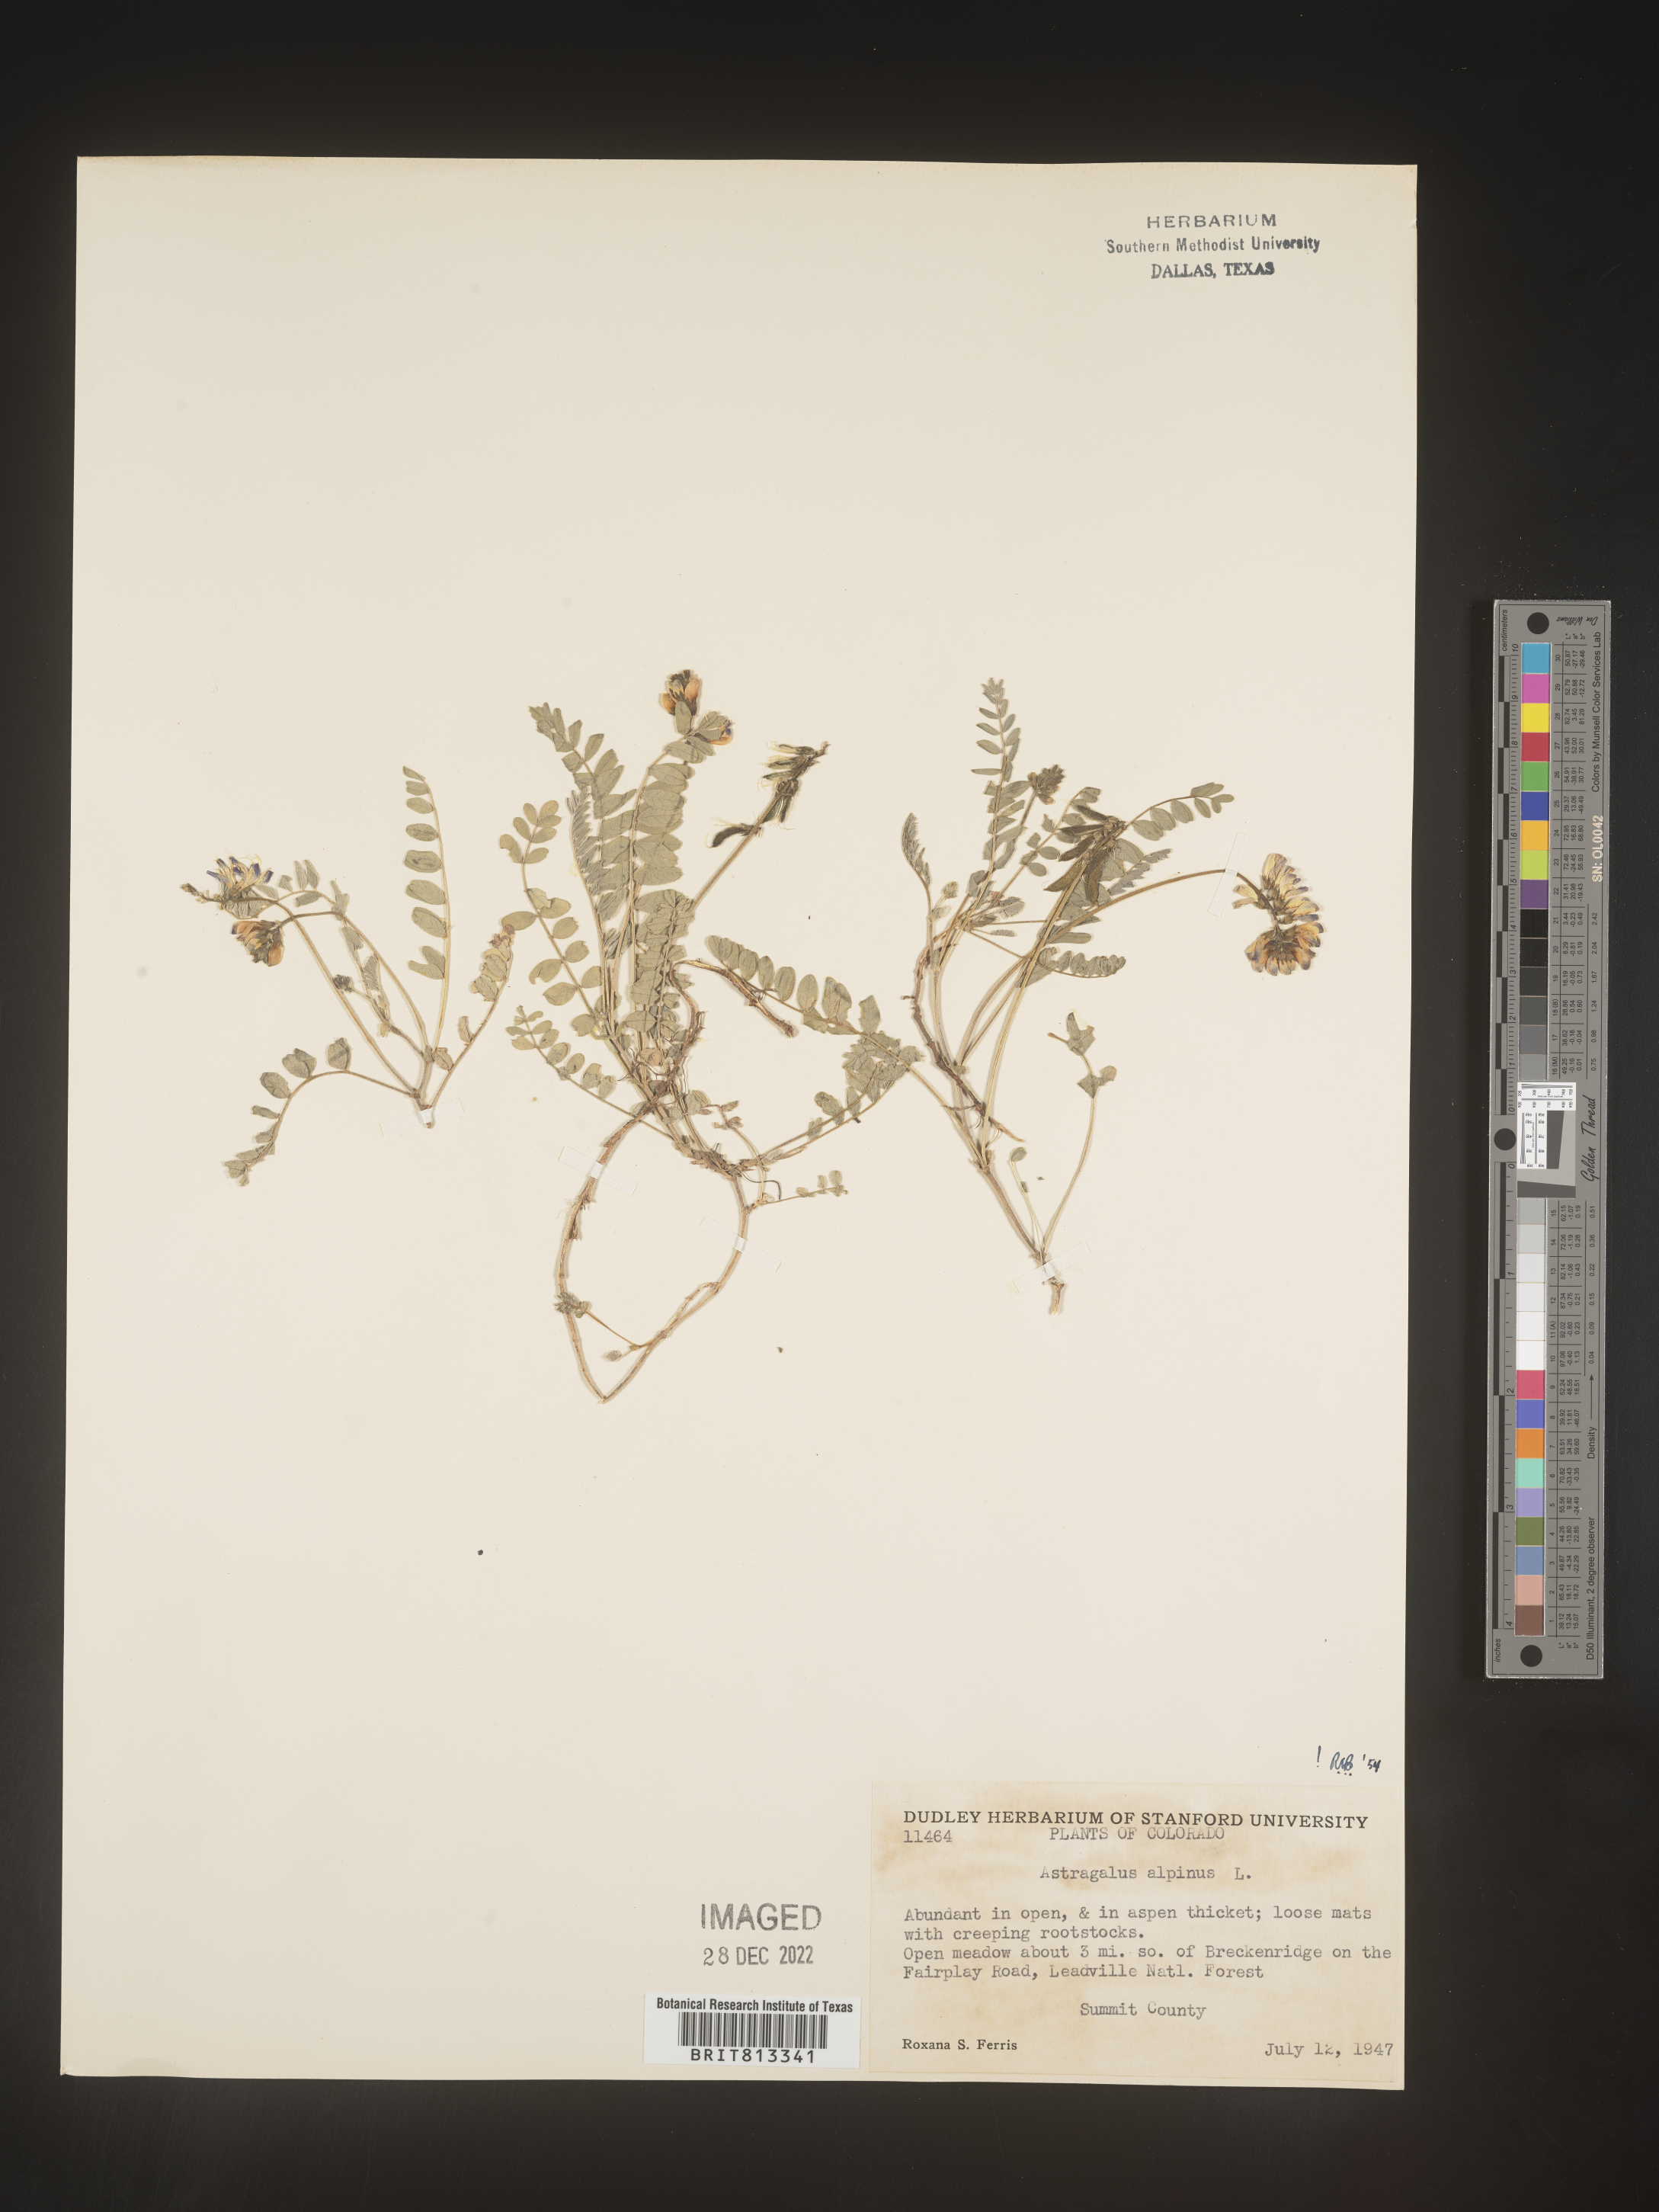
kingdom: Plantae
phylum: Tracheophyta
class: Magnoliopsida
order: Fabales
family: Fabaceae
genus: Astragalus
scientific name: Astragalus alpinus
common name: Alpine milk-vetch
